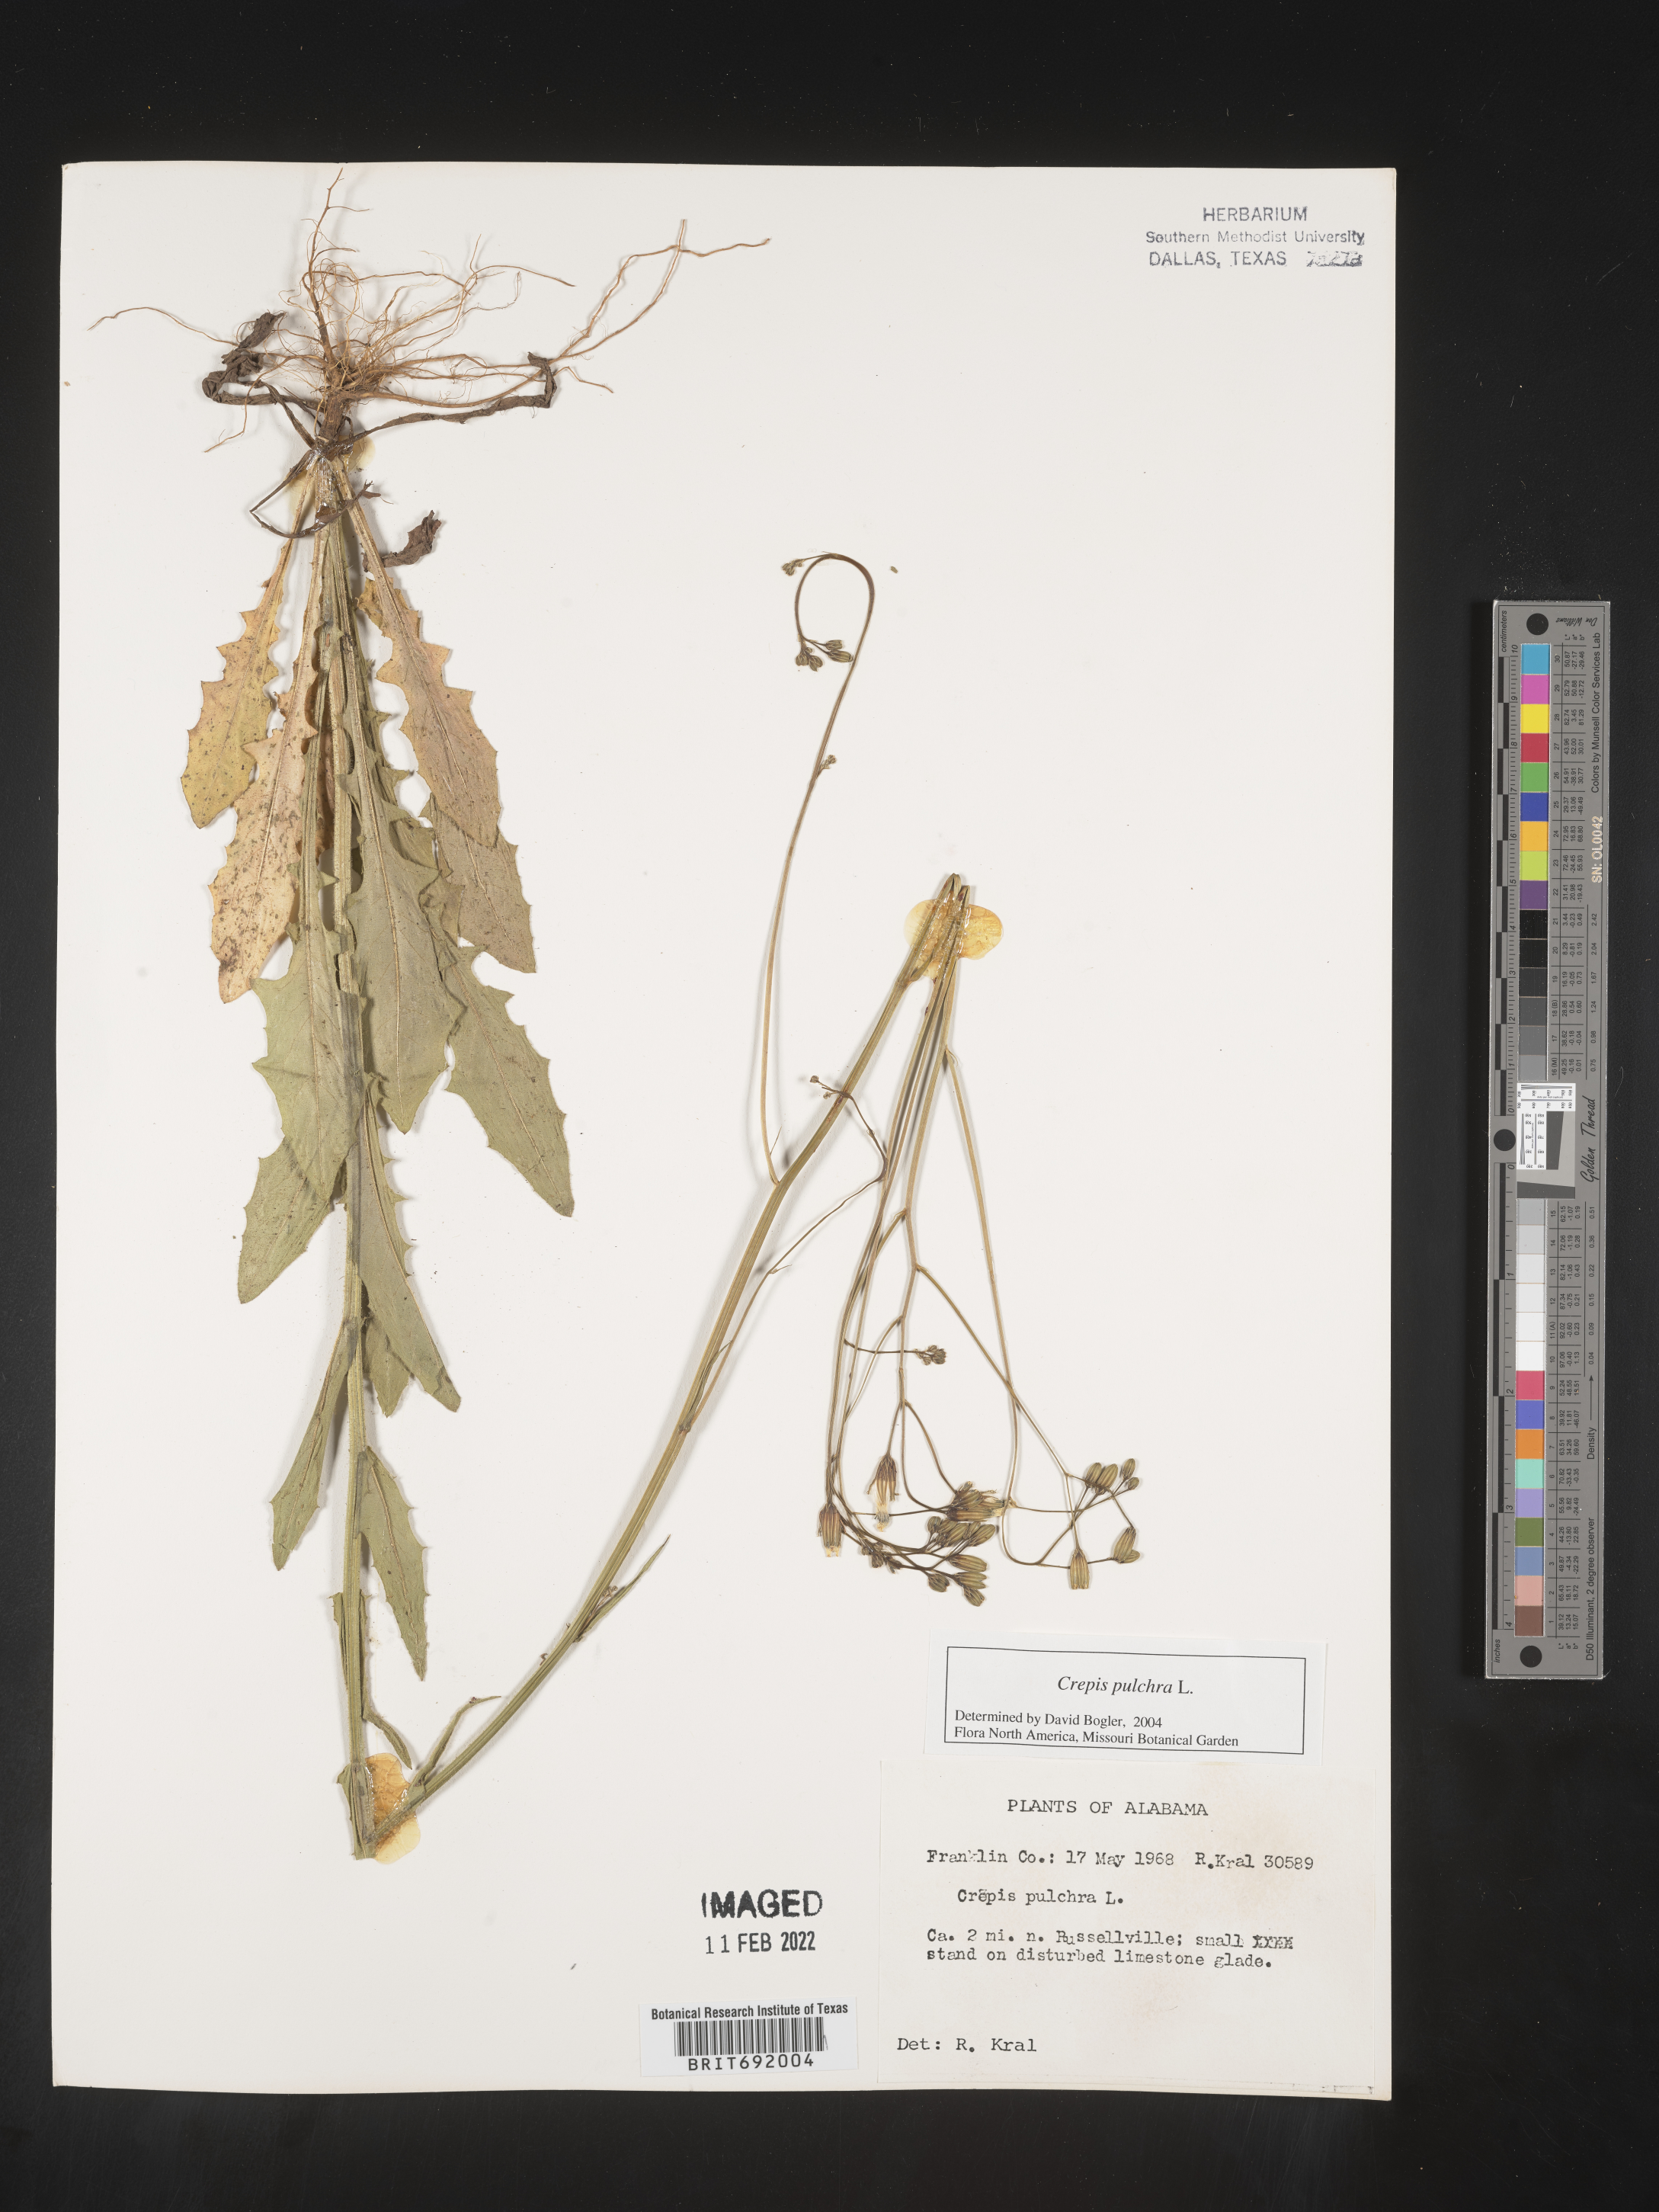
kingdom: Plantae
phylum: Tracheophyta
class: Magnoliopsida
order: Asterales
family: Asteraceae
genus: Crepis
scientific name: Crepis pulchra
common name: Hawk's-beard
